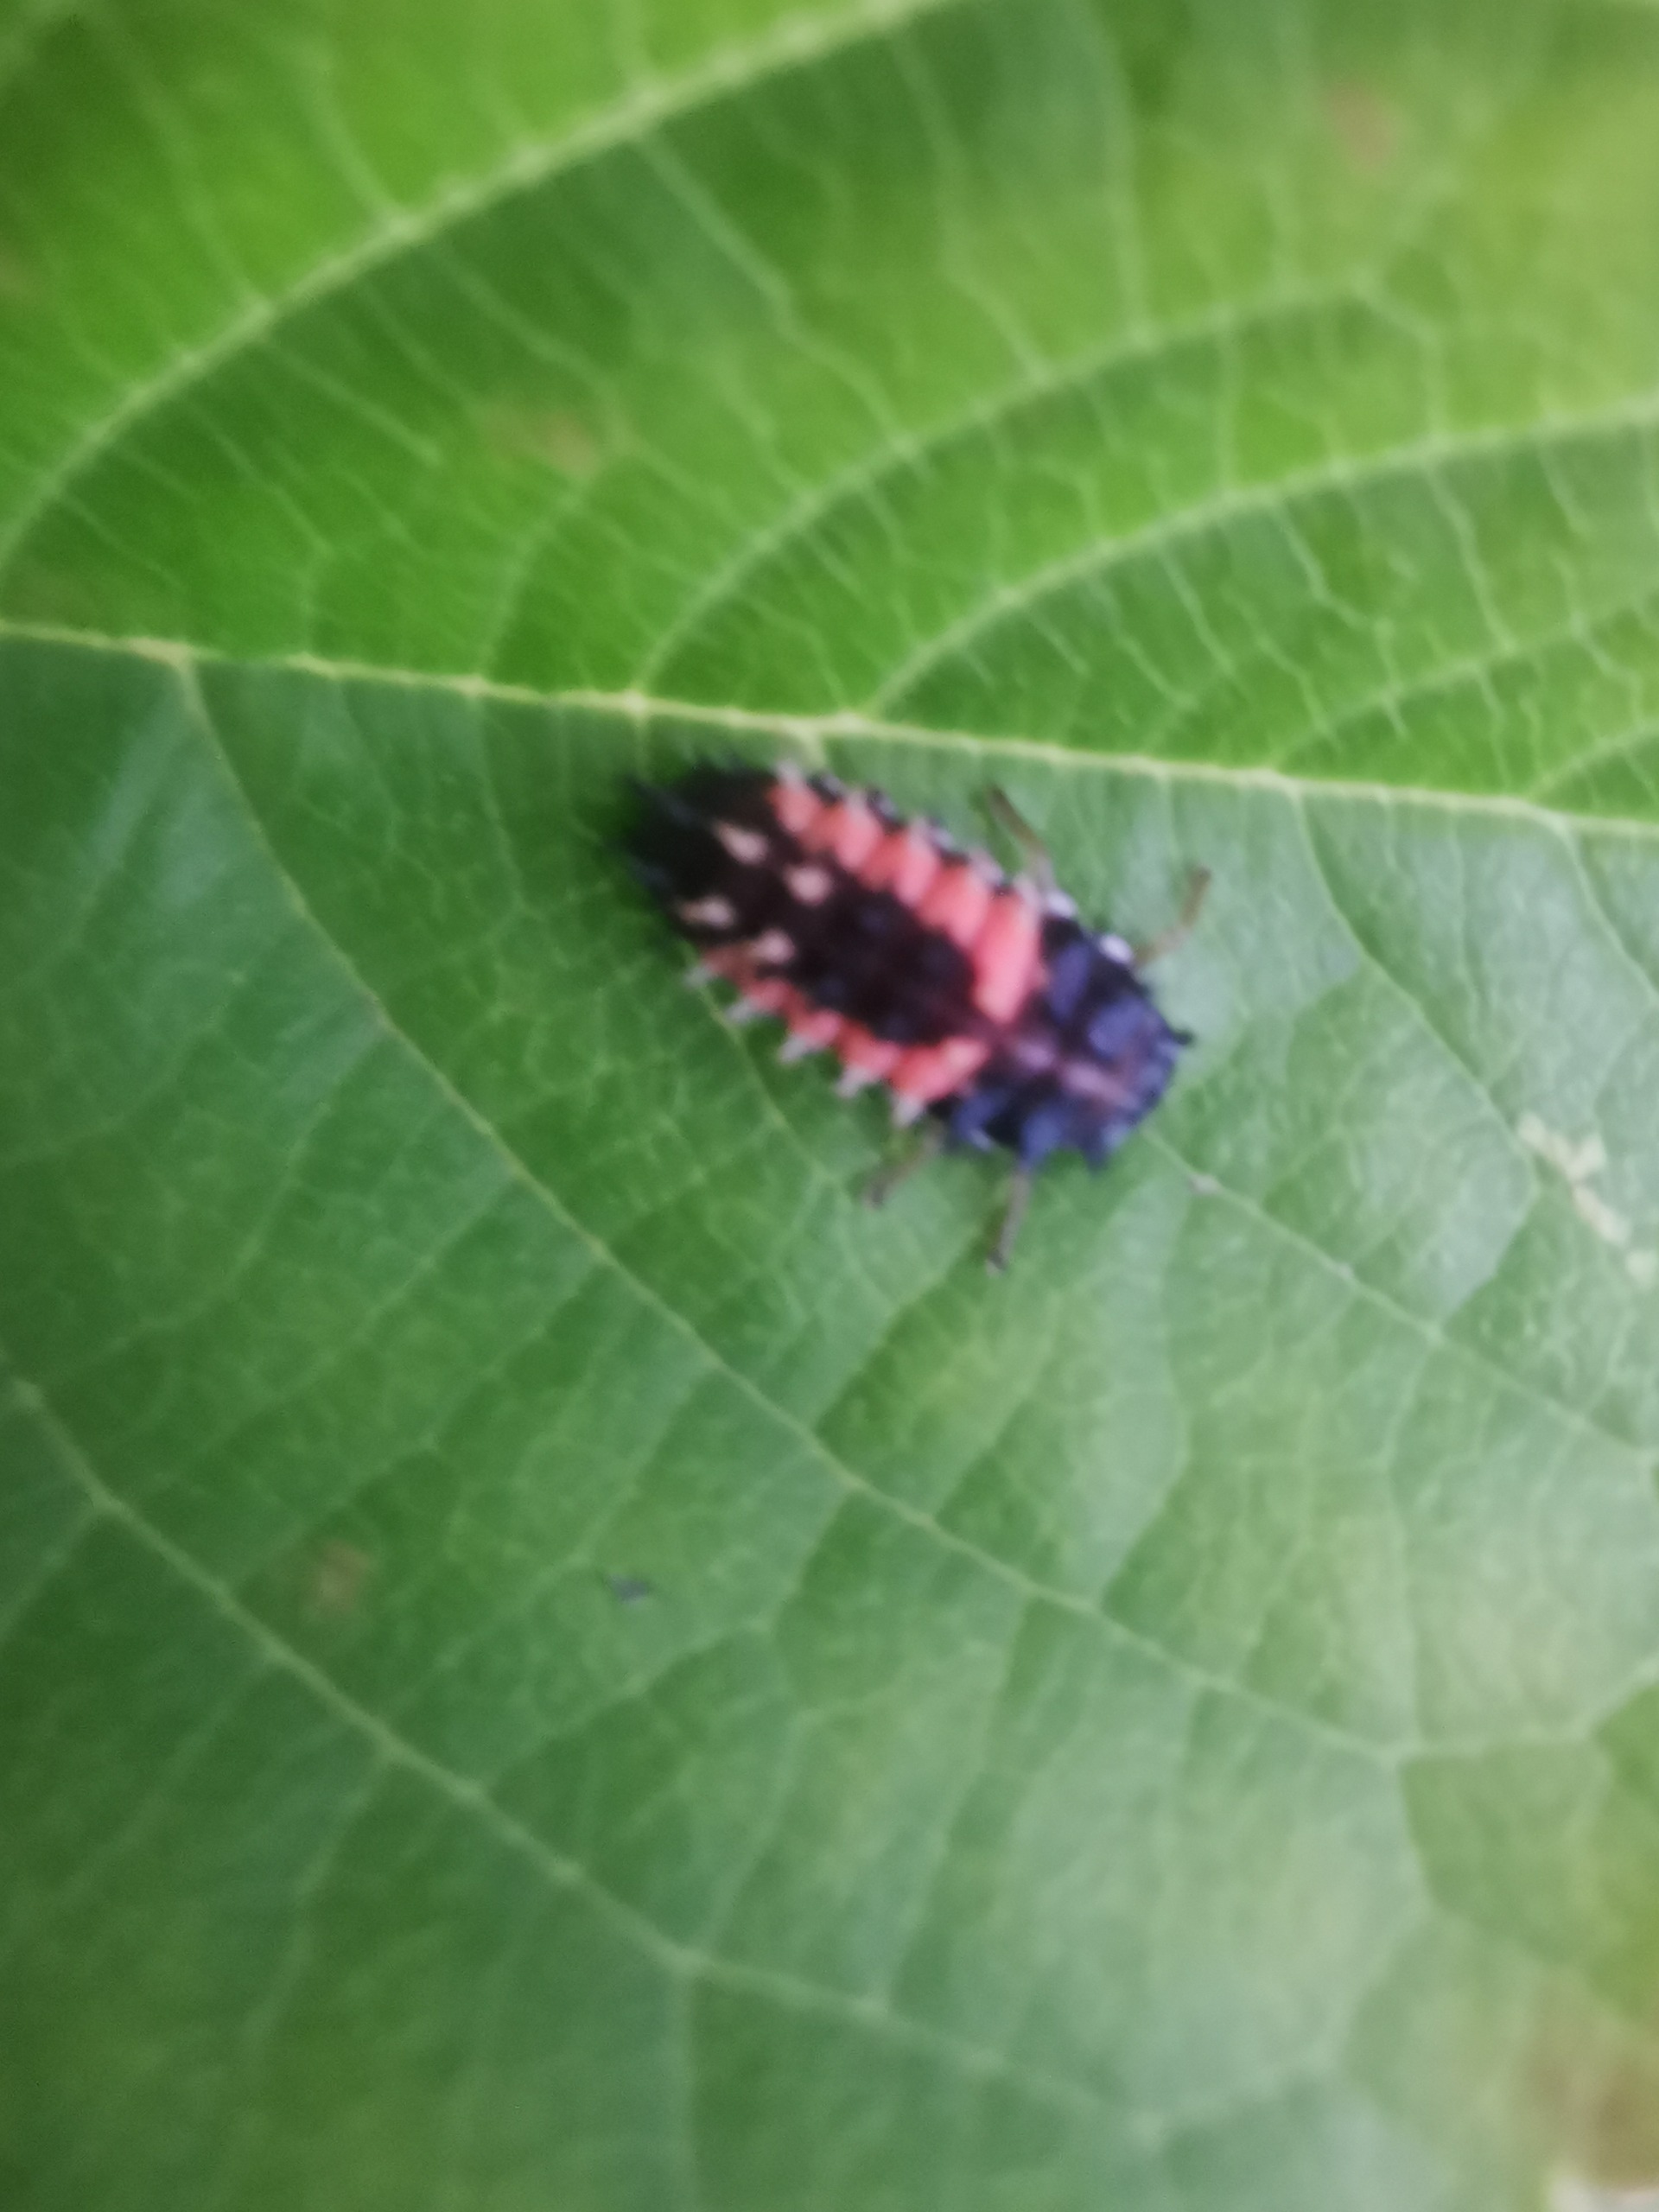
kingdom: Animalia
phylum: Arthropoda
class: Insecta
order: Coleoptera
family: Coccinellidae
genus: Harmonia
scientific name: Harmonia axyridis
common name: Harlekinmariehøne
